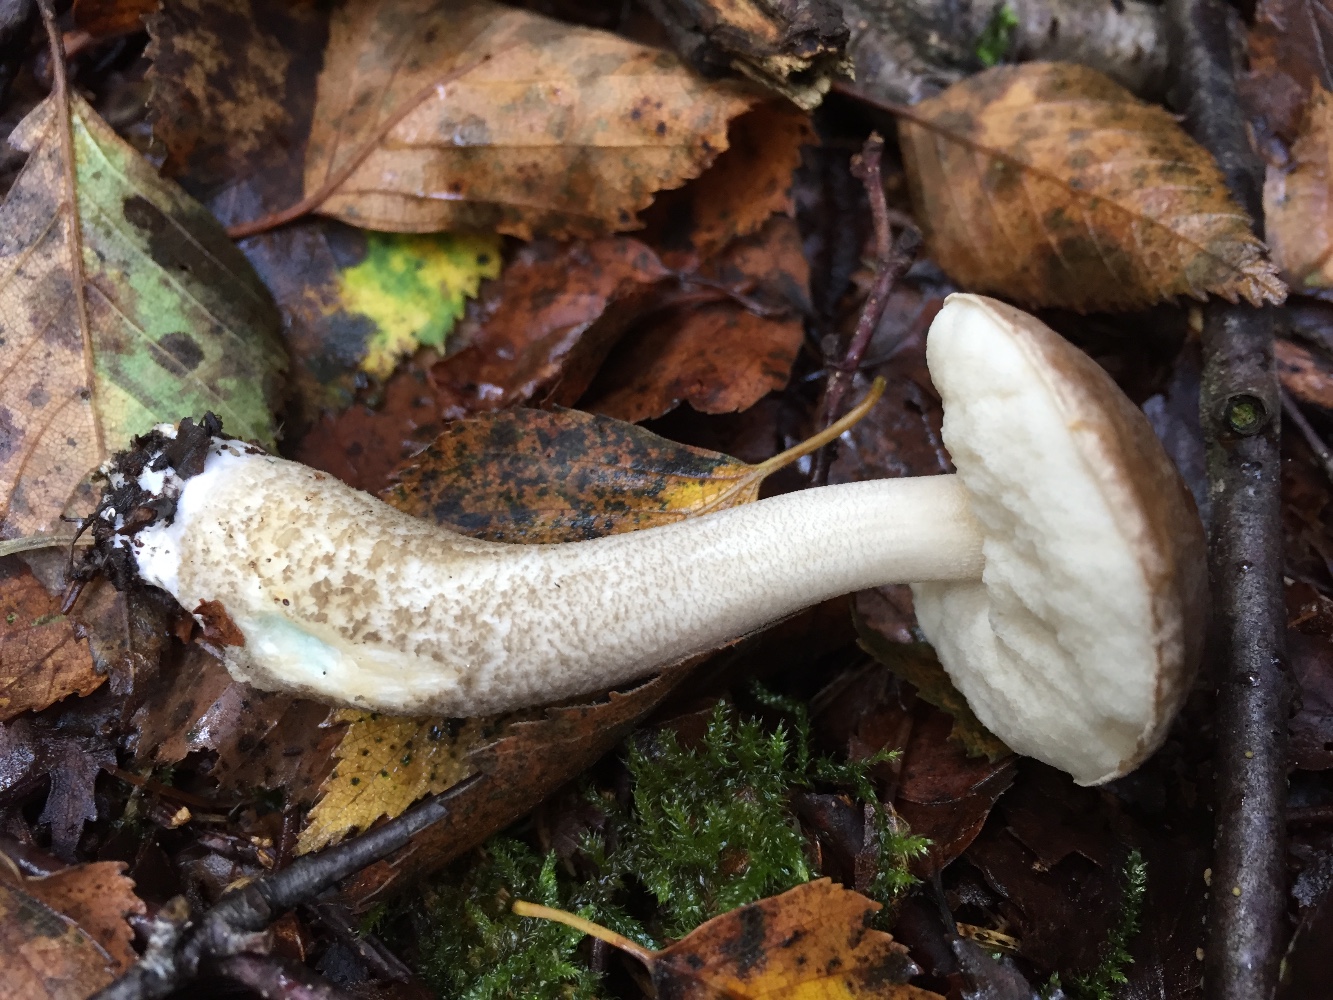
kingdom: Fungi
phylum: Basidiomycota
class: Agaricomycetes
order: Boletales
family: Boletaceae
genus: Leccinum
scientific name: Leccinum cyaneobasileucum
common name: almindelig skælrørhat
